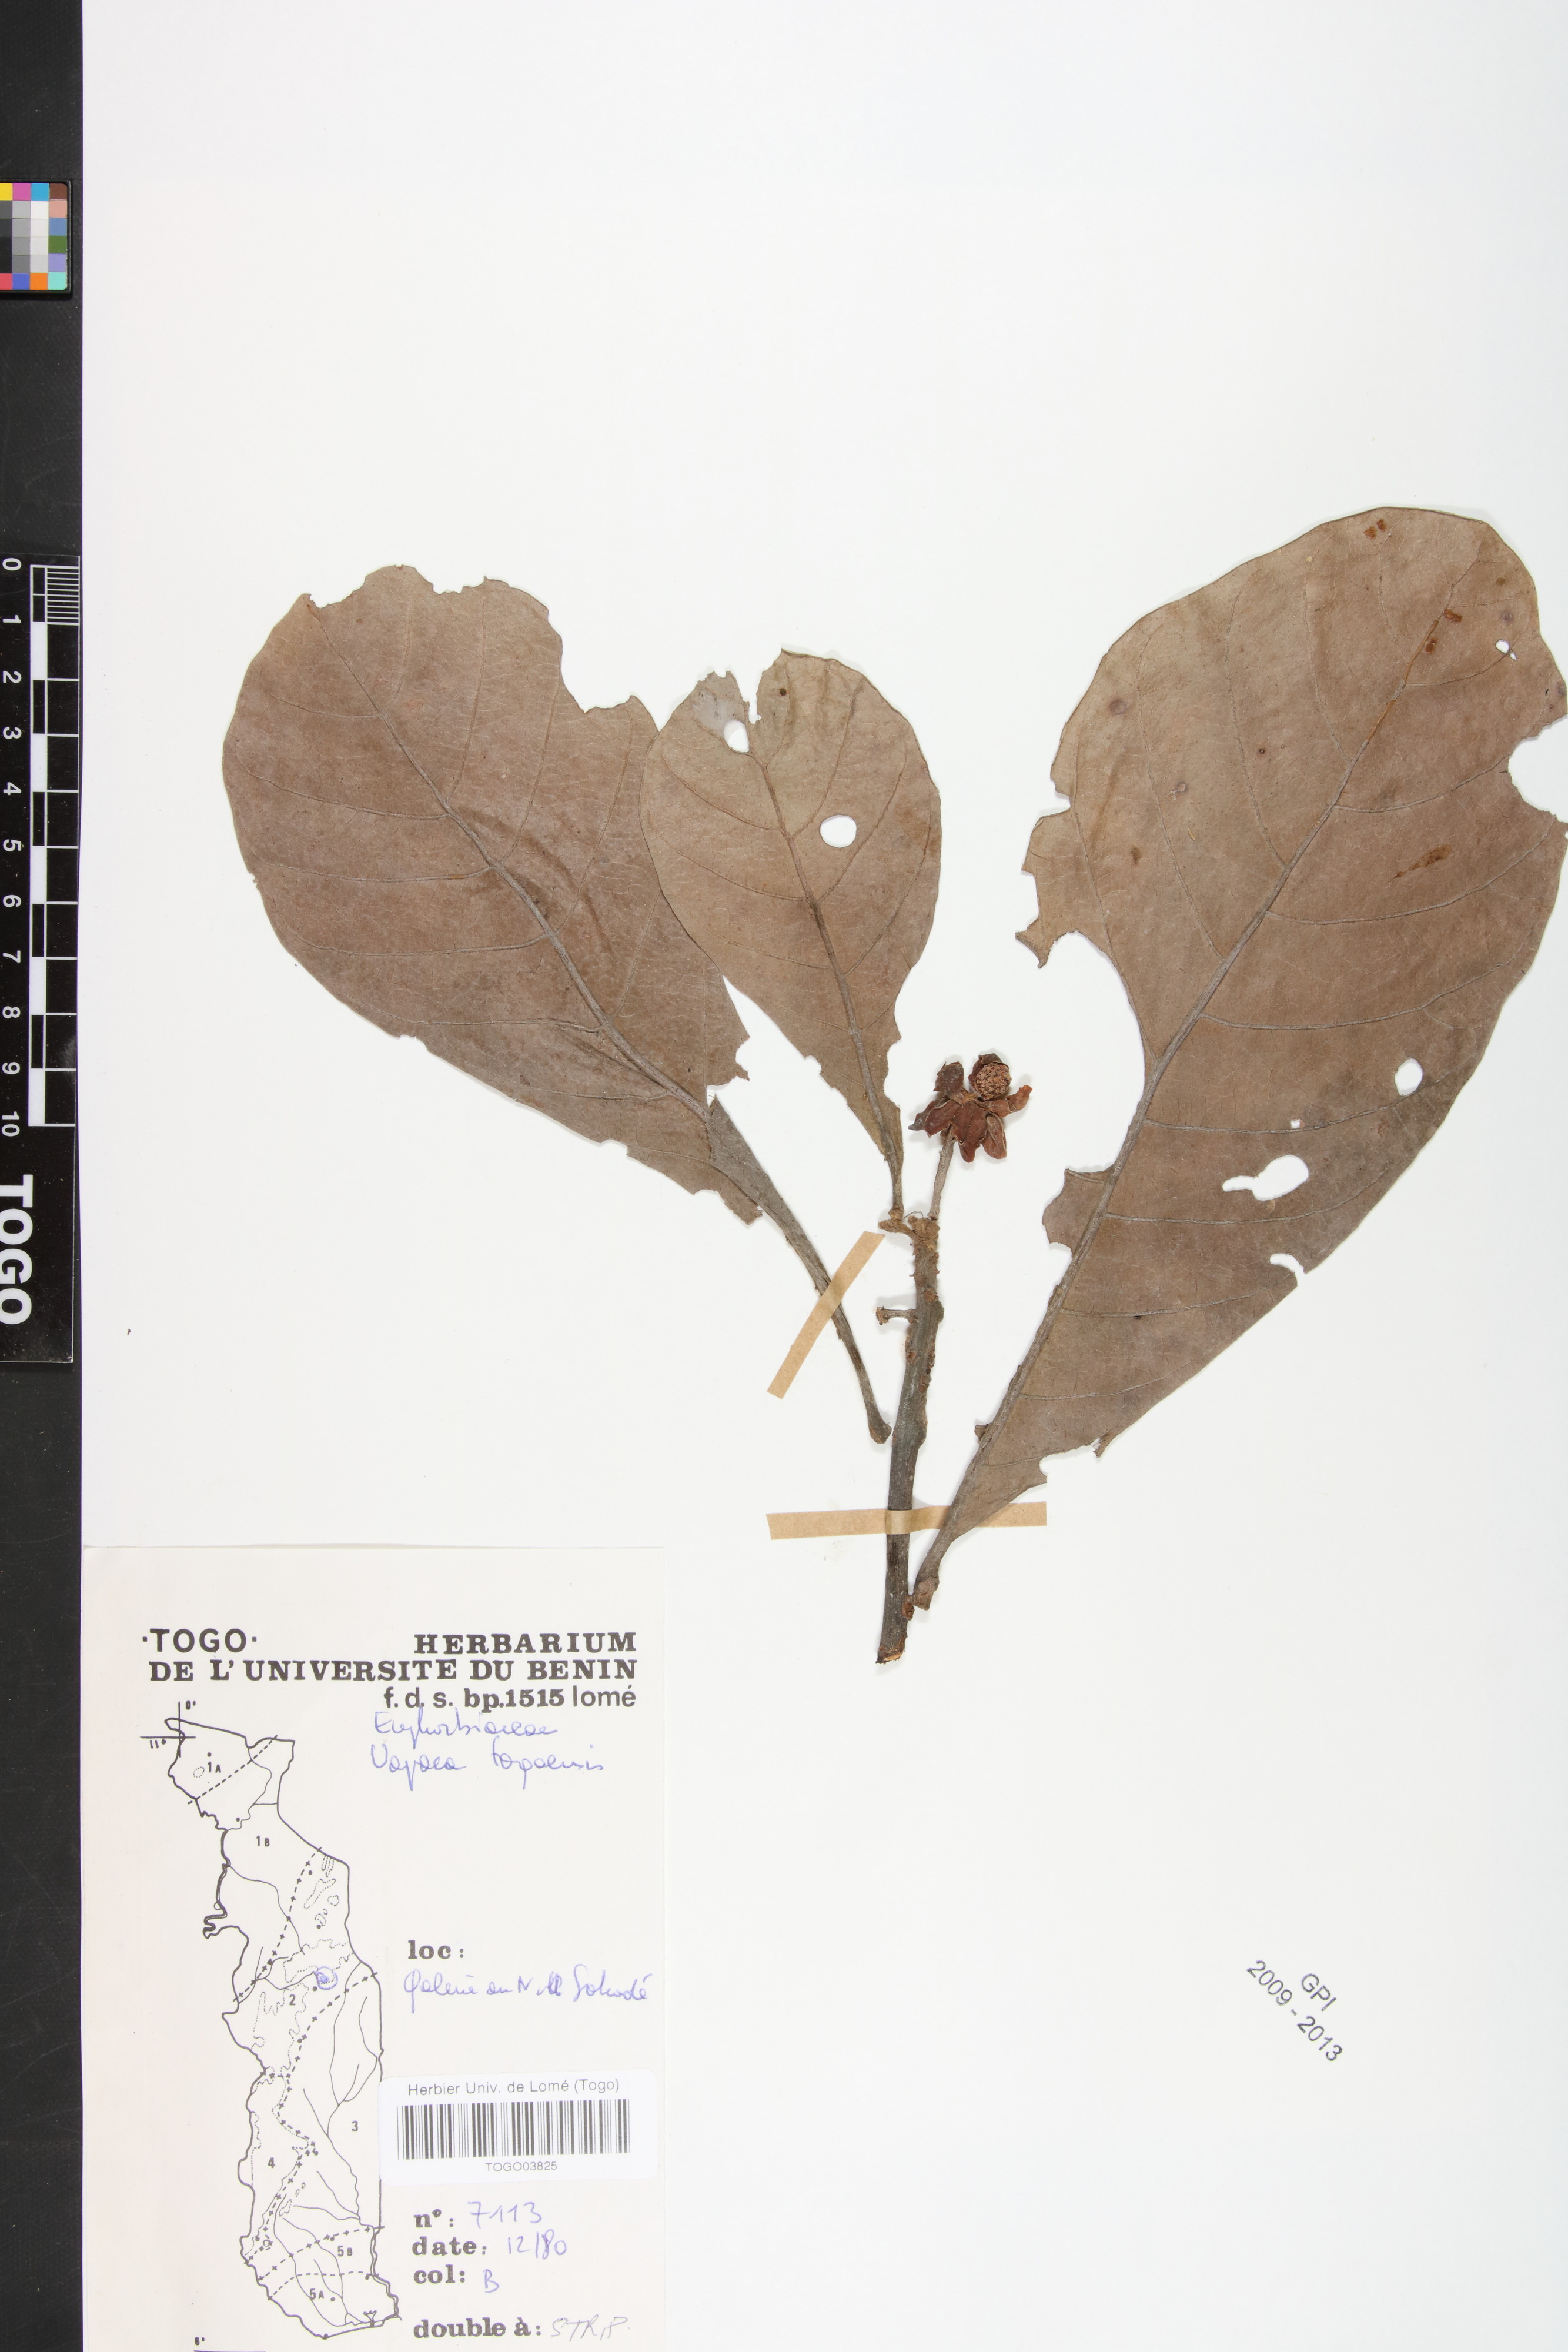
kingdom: Plantae
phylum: Tracheophyta
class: Magnoliopsida
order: Malpighiales
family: Phyllanthaceae
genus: Uapaca
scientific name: Uapaca togoensis
